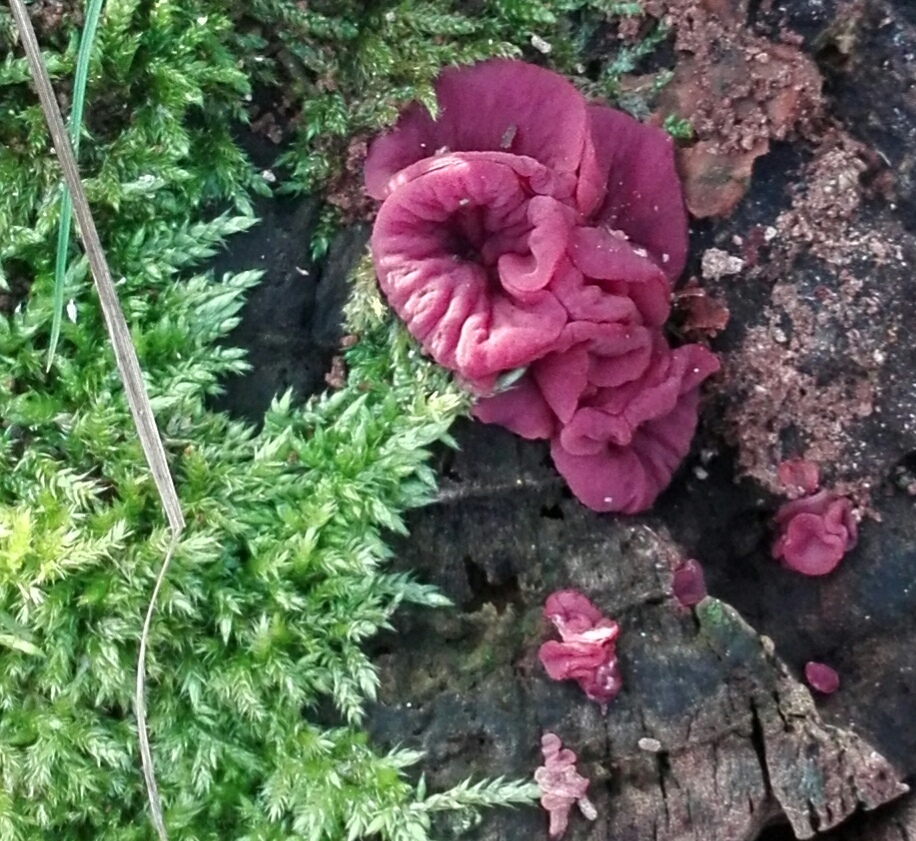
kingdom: Fungi
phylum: Ascomycota
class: Leotiomycetes
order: Helotiales
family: Gelatinodiscaceae
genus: Ascocoryne
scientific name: Ascocoryne cylichnium
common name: stor sejskive
